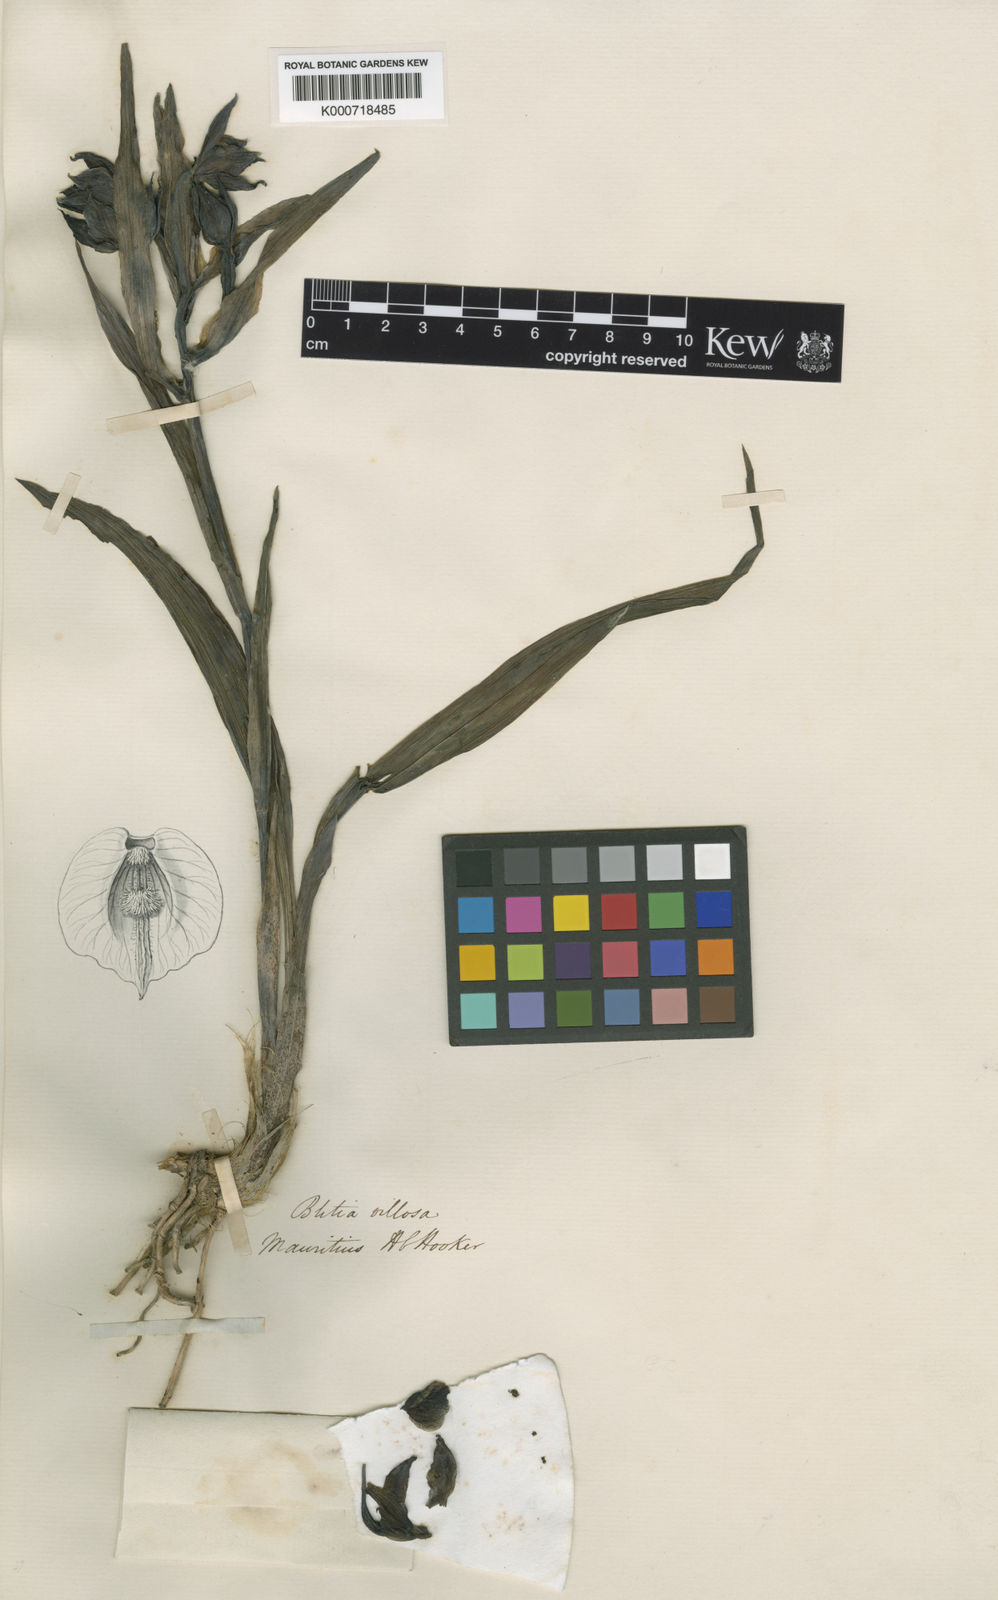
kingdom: Plantae
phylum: Tracheophyta
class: Liliopsida
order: Asparagales
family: Orchidaceae
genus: Calanthe
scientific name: Calanthe villosagastris
